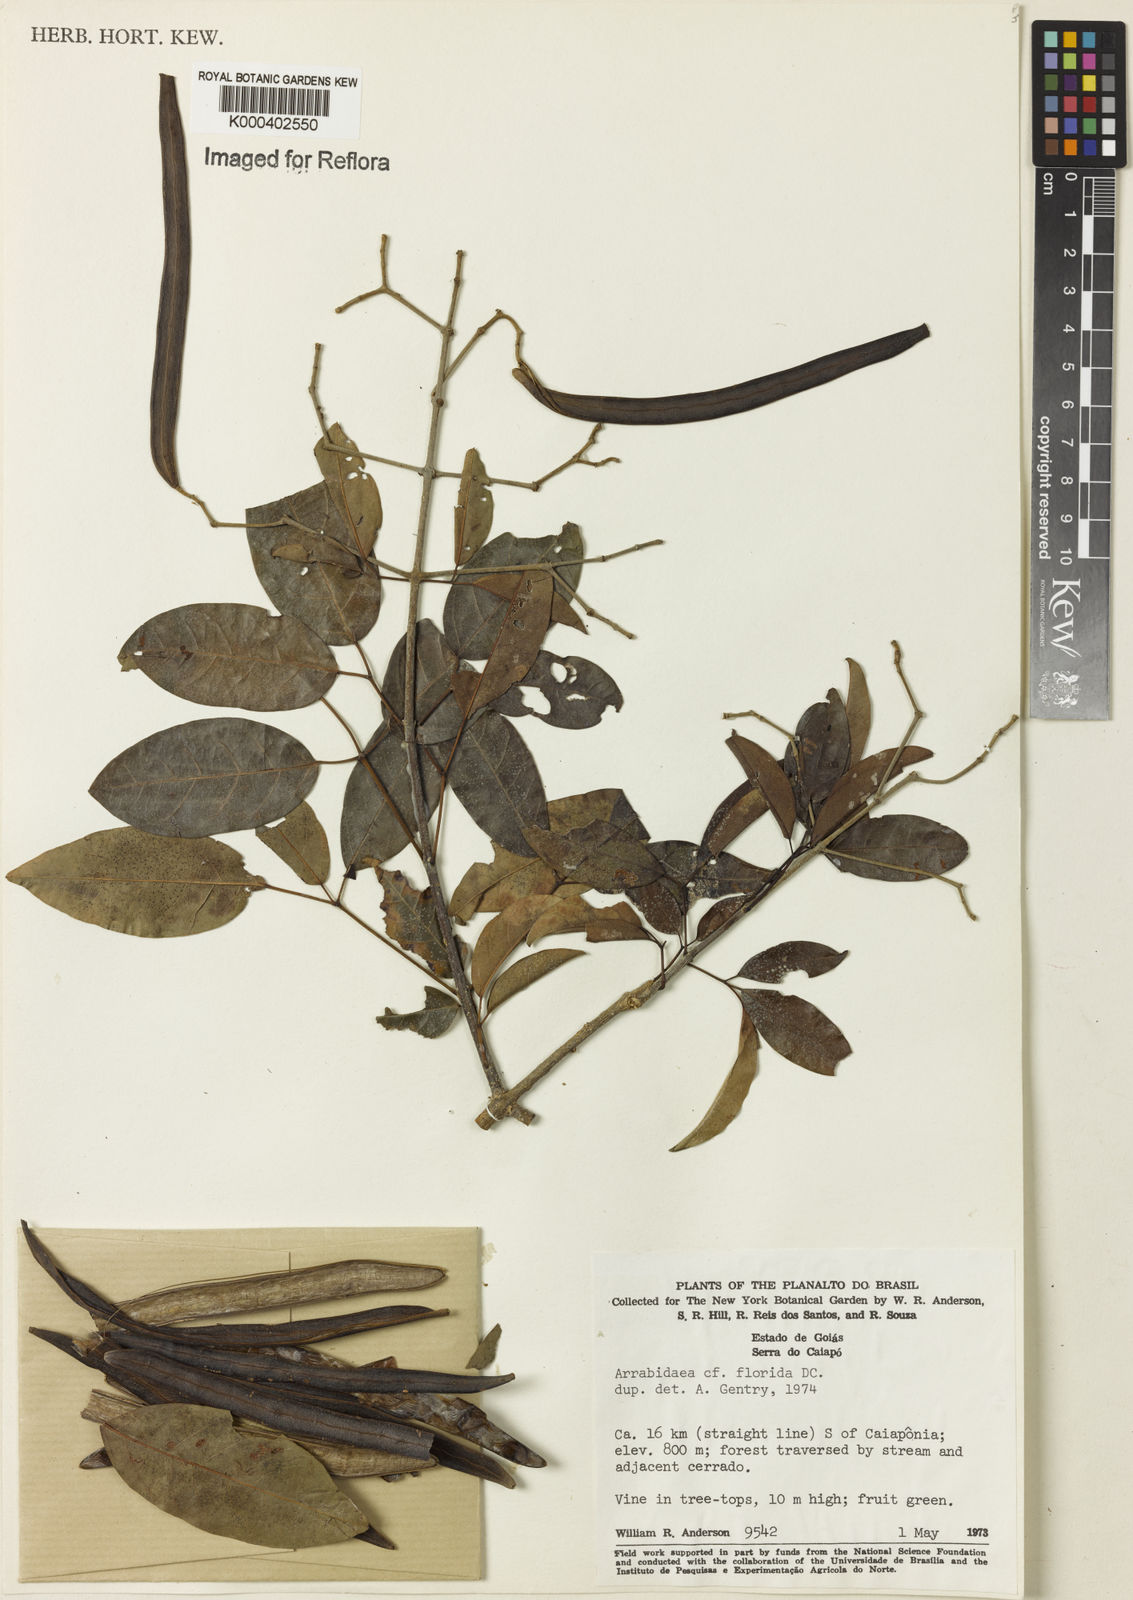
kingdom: Plantae
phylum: Tracheophyta
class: Magnoliopsida
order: Lamiales
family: Bignoniaceae
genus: Fridericia
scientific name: Fridericia florida
